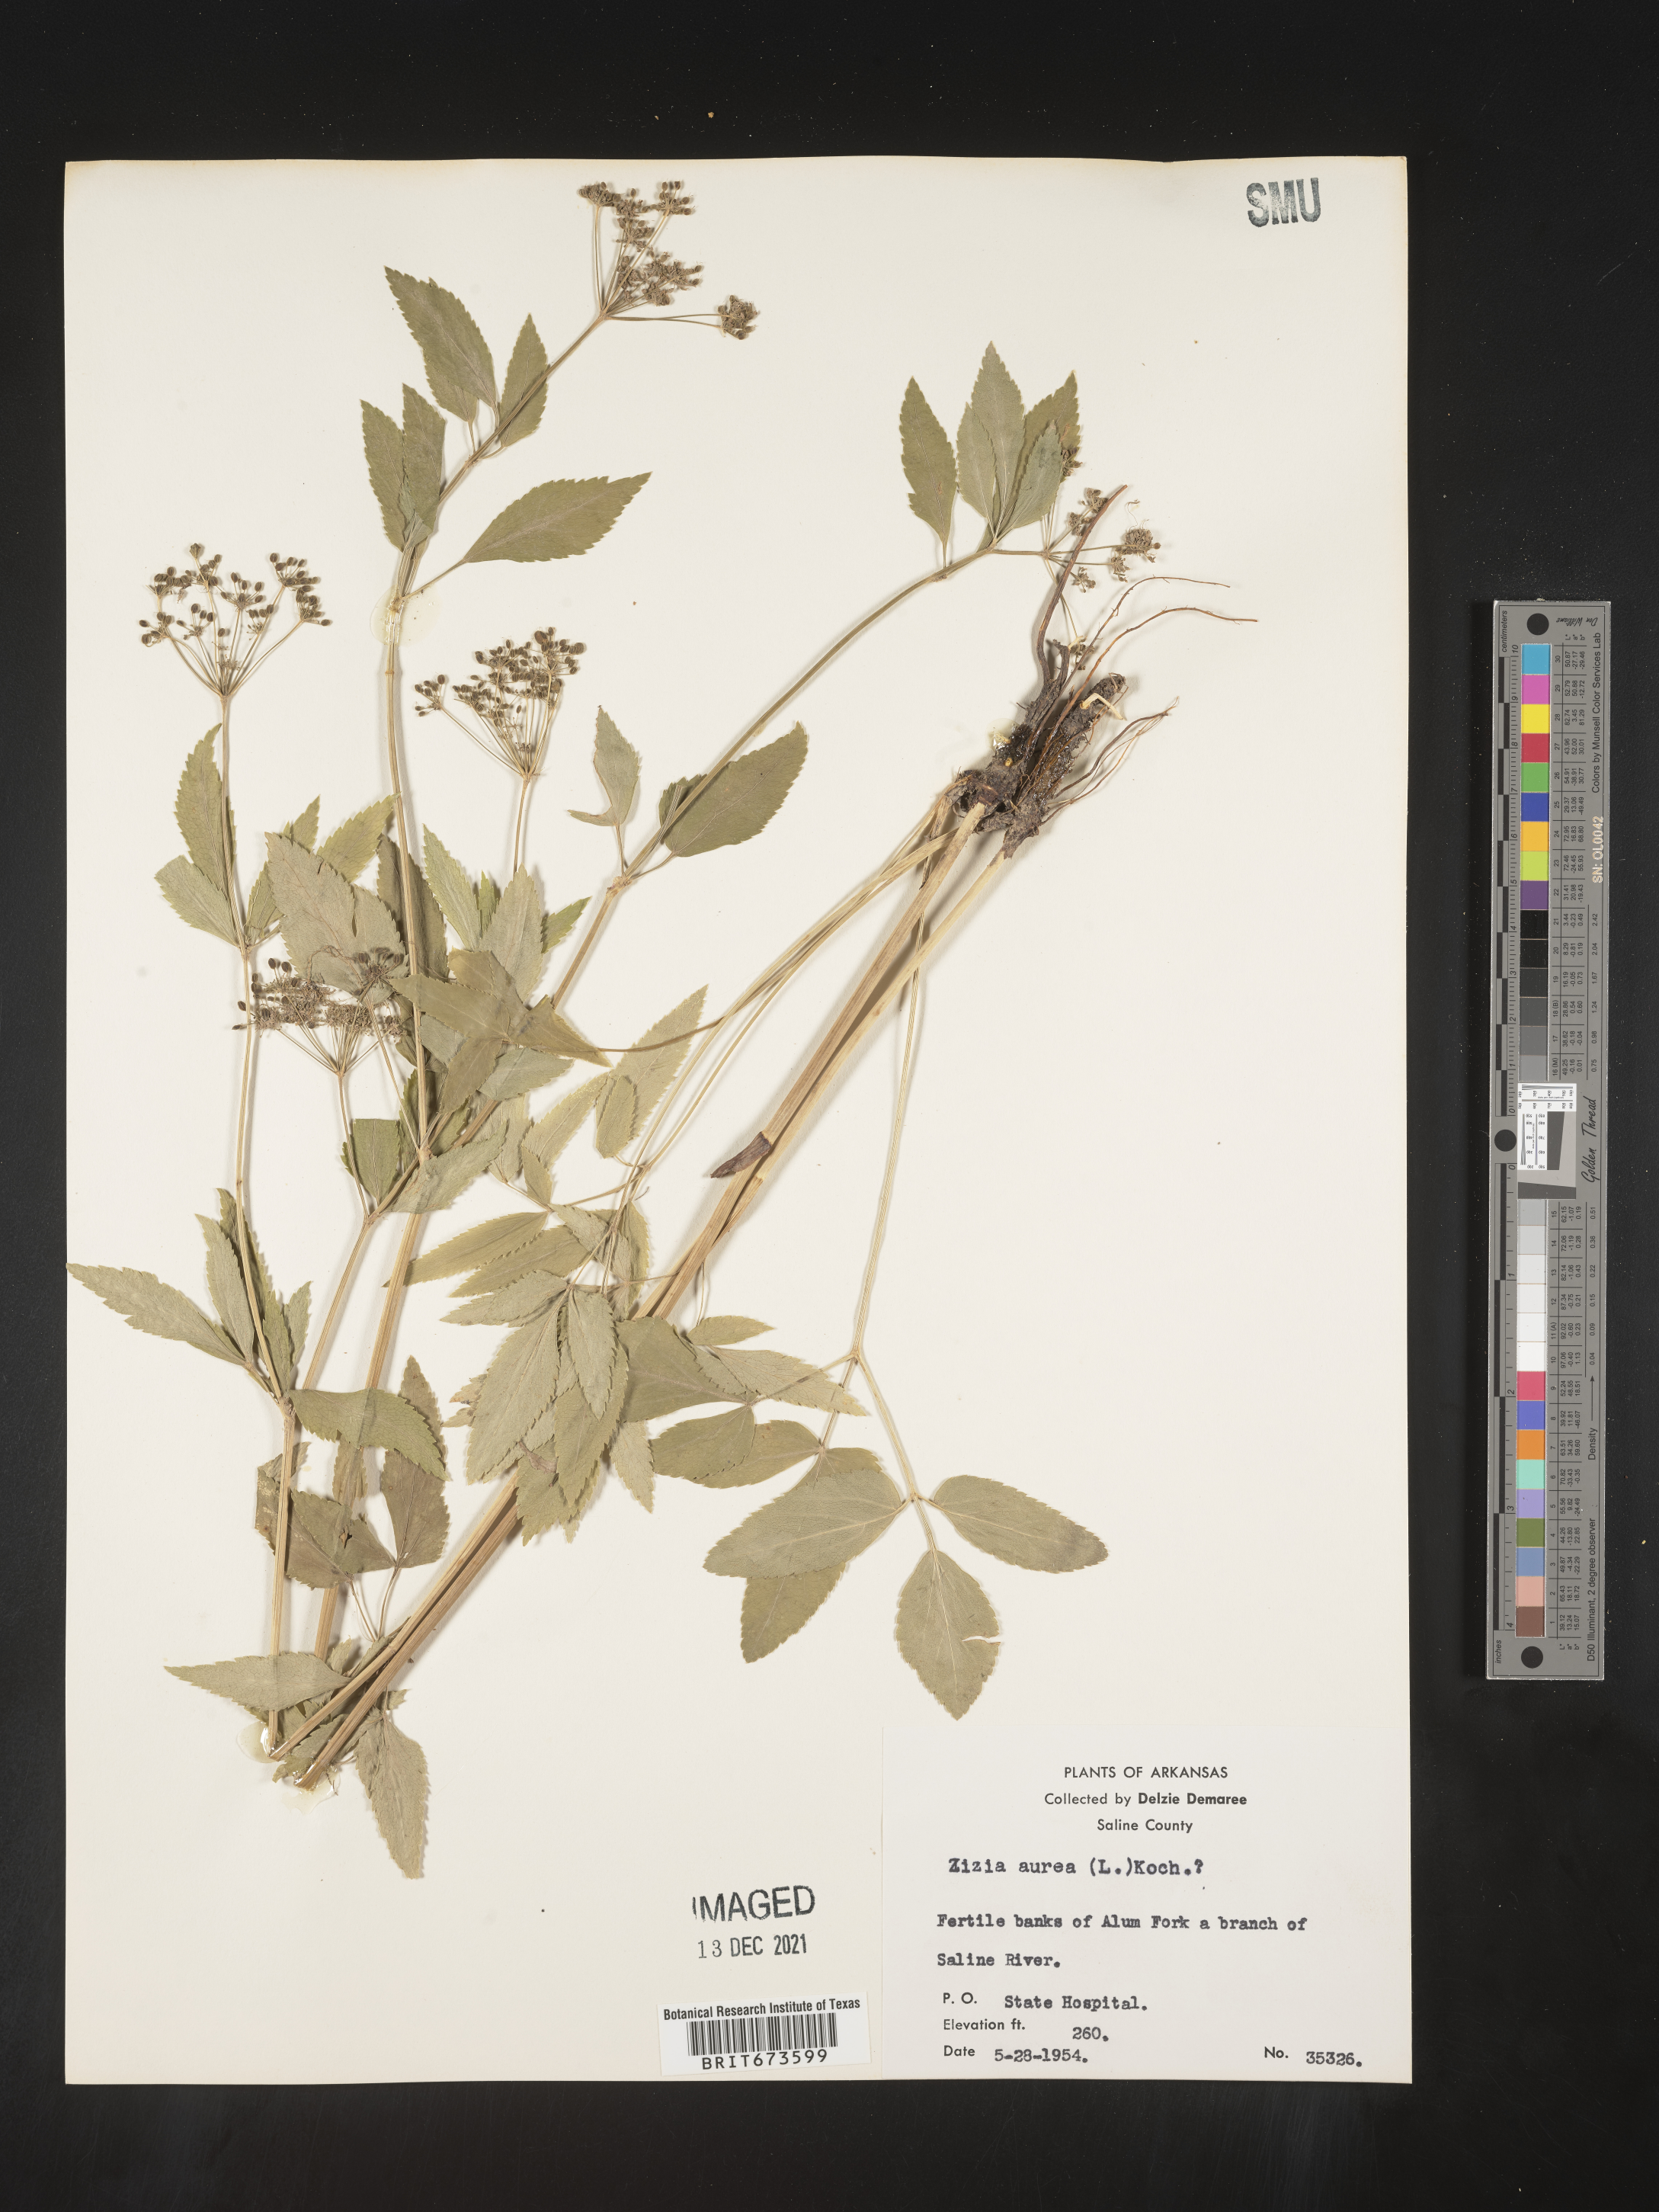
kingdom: Plantae
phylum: Tracheophyta
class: Magnoliopsida
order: Apiales
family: Apiaceae
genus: Zizia
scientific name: Zizia aurea
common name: Golden alexanders
